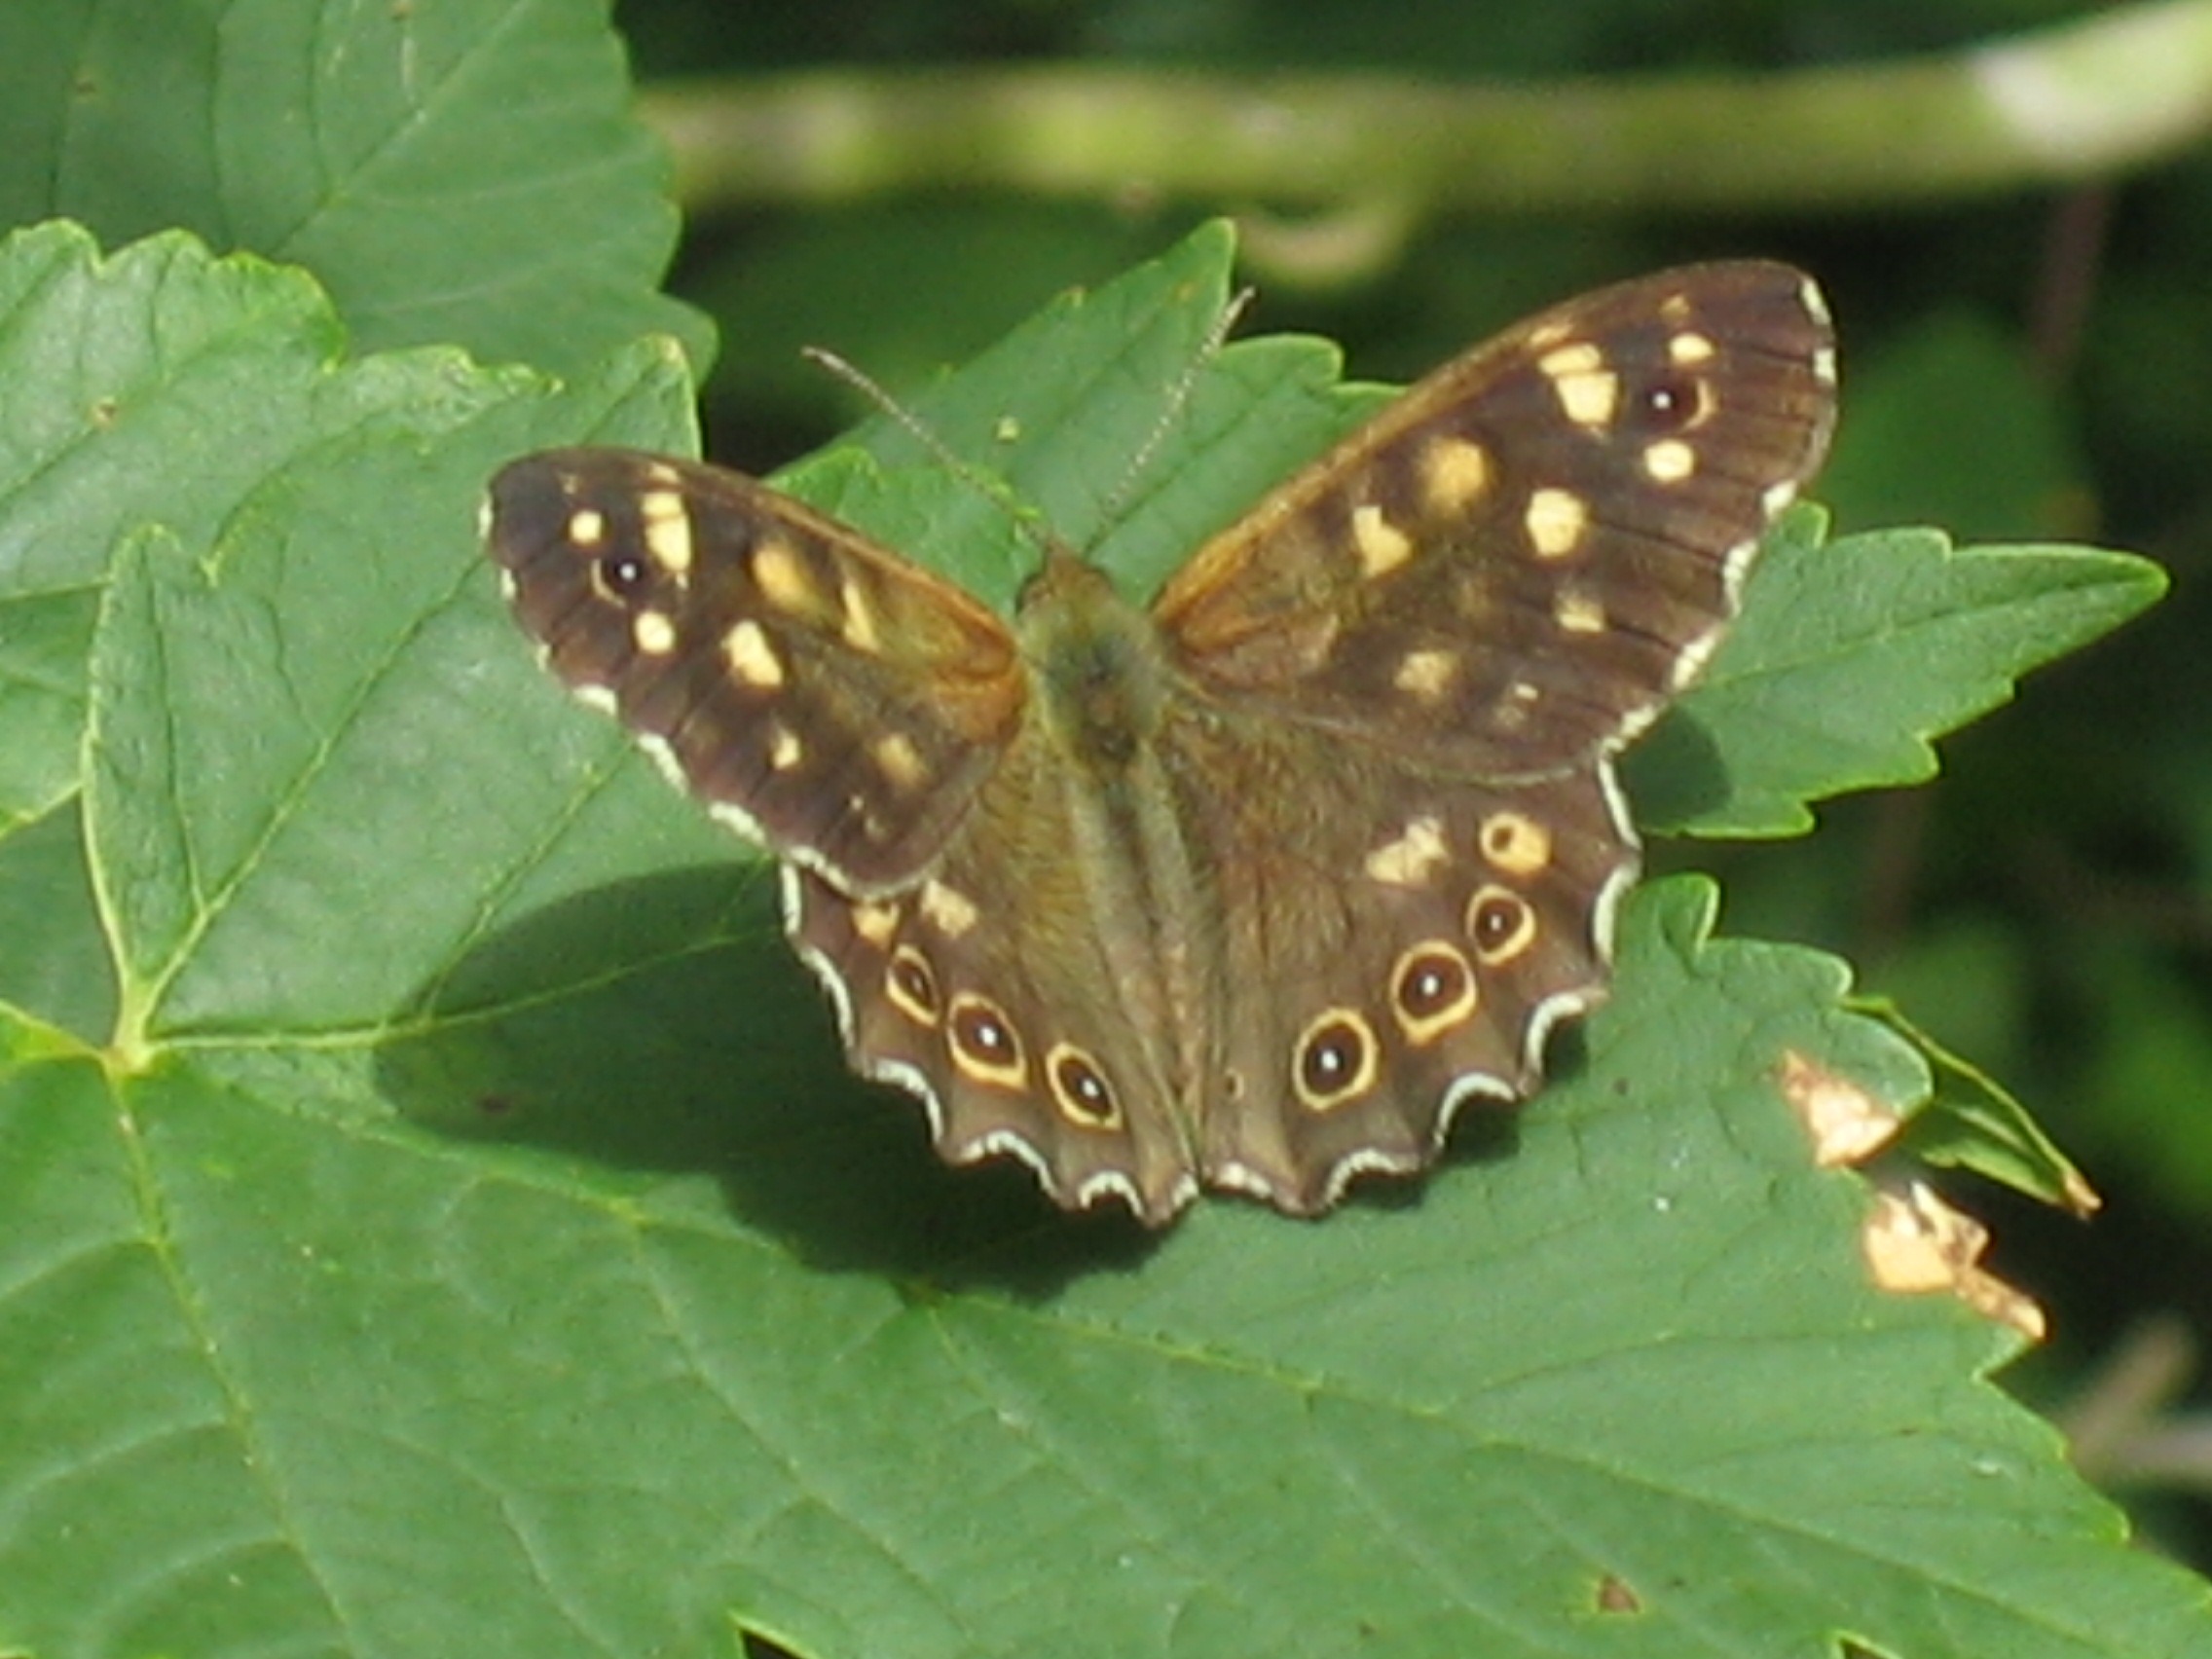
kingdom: Animalia
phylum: Arthropoda
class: Insecta
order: Lepidoptera
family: Nymphalidae
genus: Pararge
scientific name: Pararge aegeria
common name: Skovrandøje
